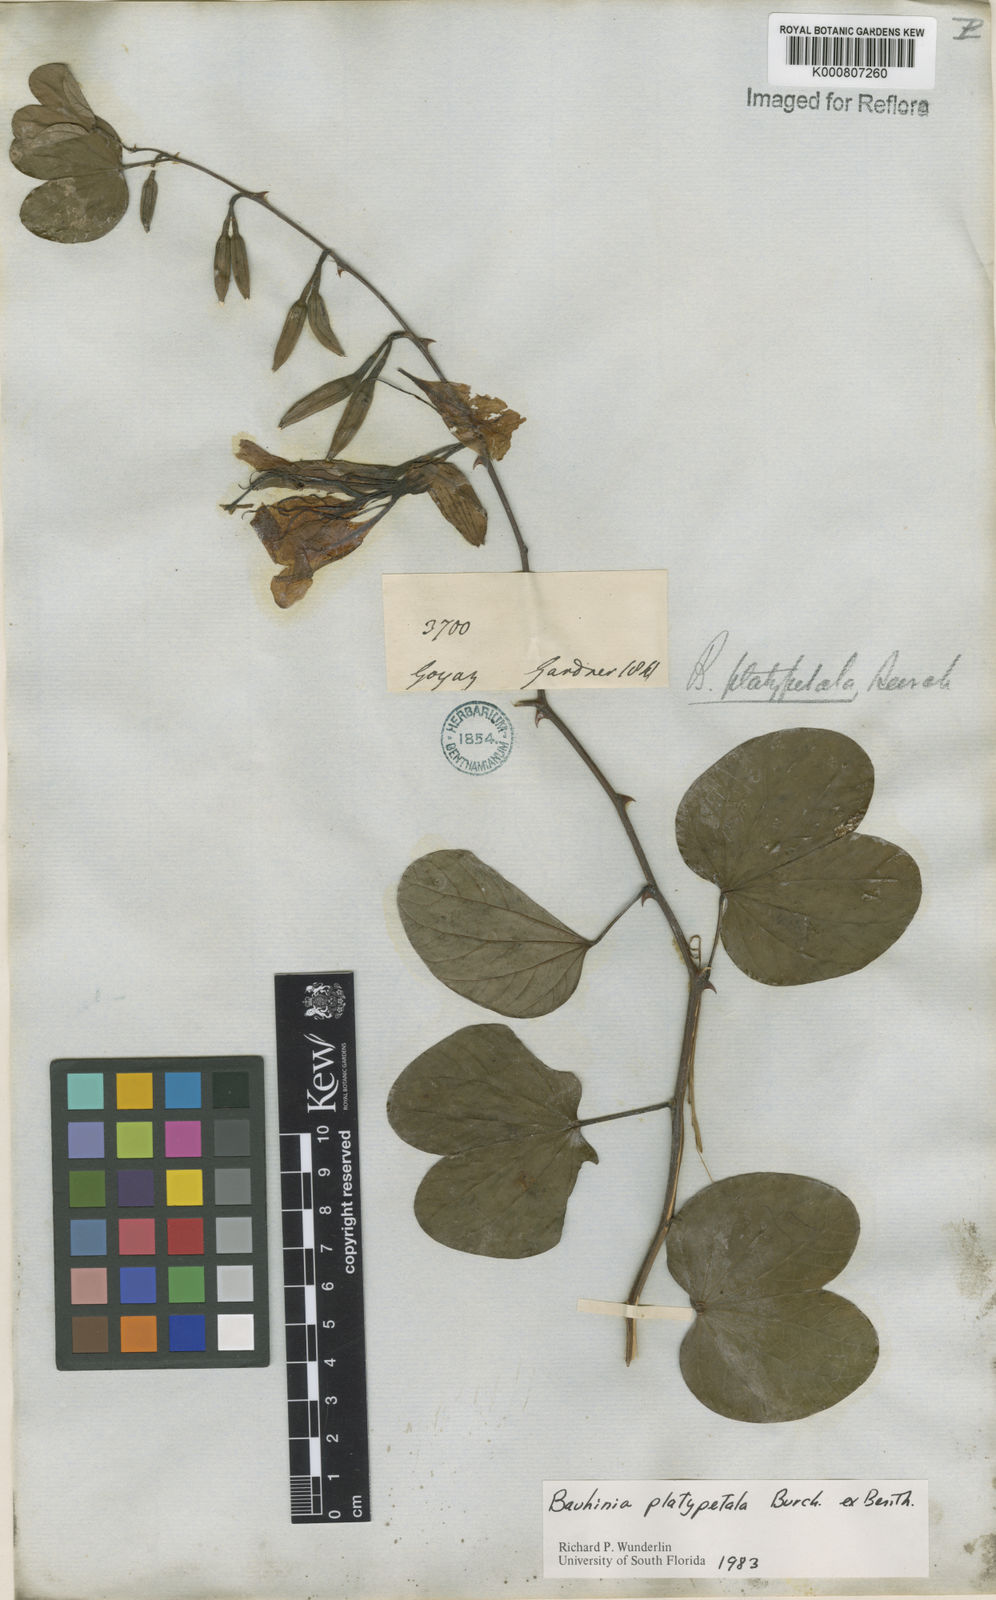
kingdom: Plantae
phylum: Tracheophyta
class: Magnoliopsida
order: Fabales
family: Fabaceae
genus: Bauhinia
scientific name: Bauhinia platypetala
